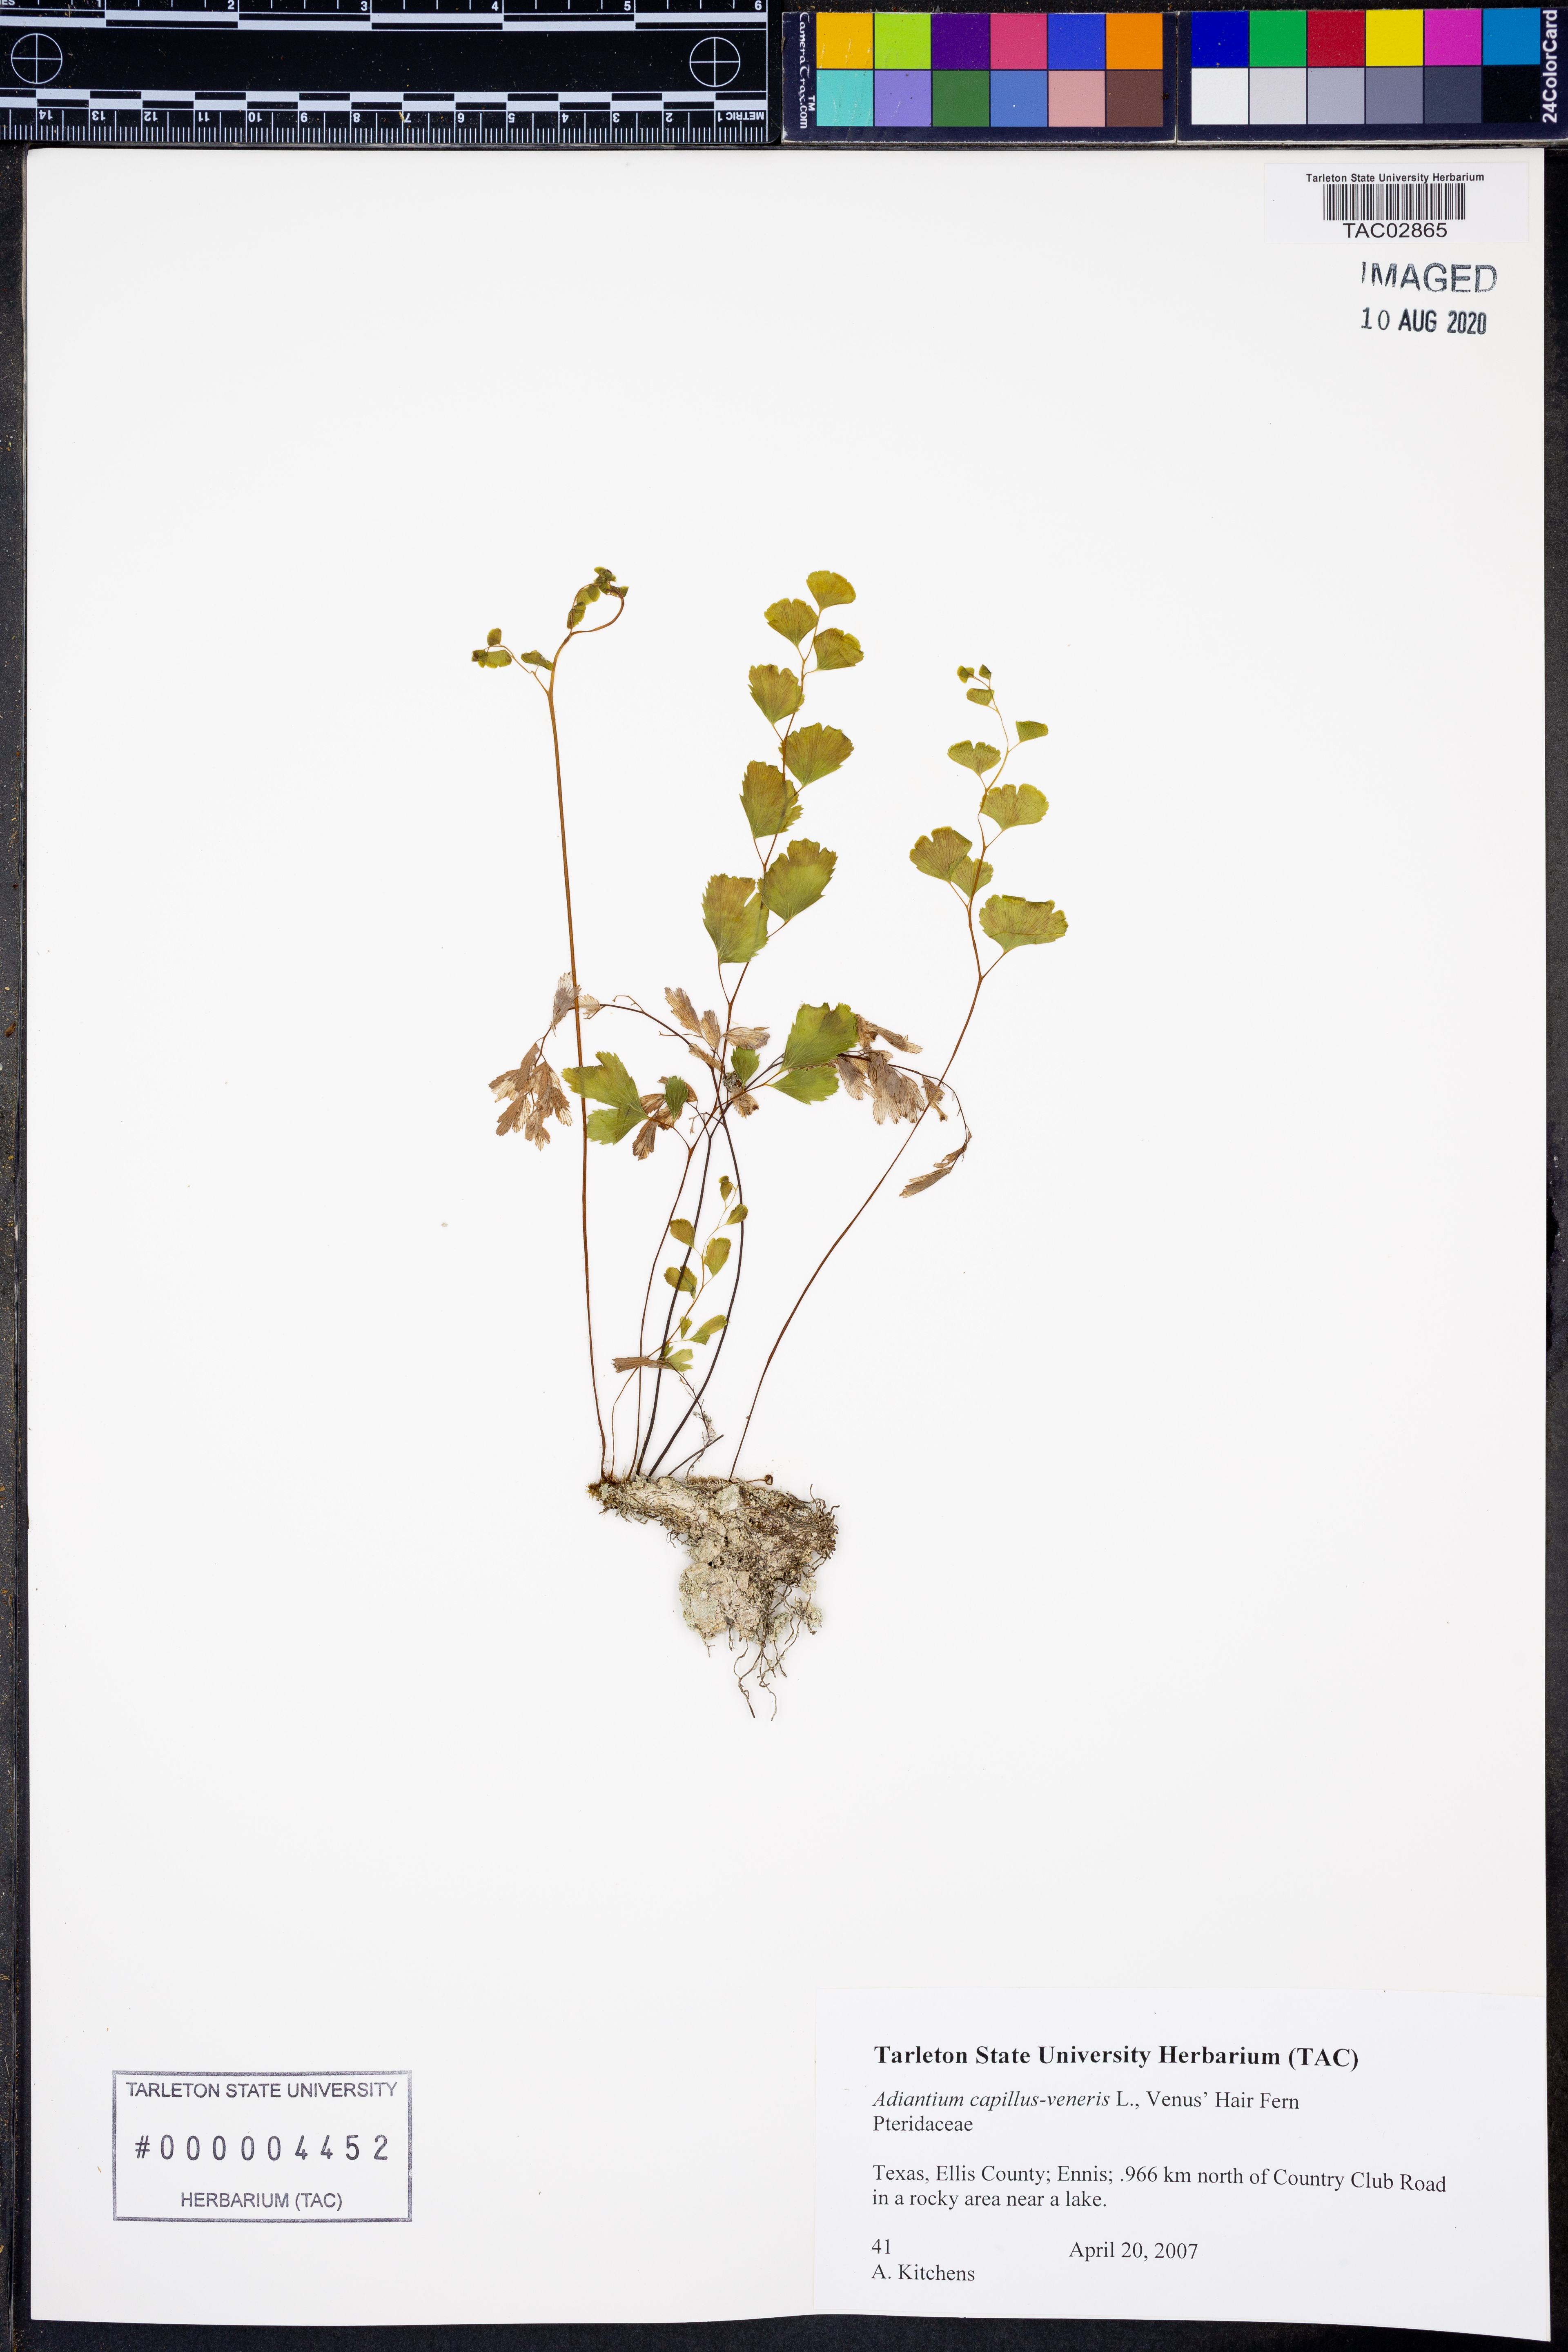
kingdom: Plantae
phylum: Tracheophyta
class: Polypodiopsida
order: Polypodiales
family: Pteridaceae
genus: Adiantum
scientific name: Adiantum capillus-veneris
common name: Maidenhair fern
